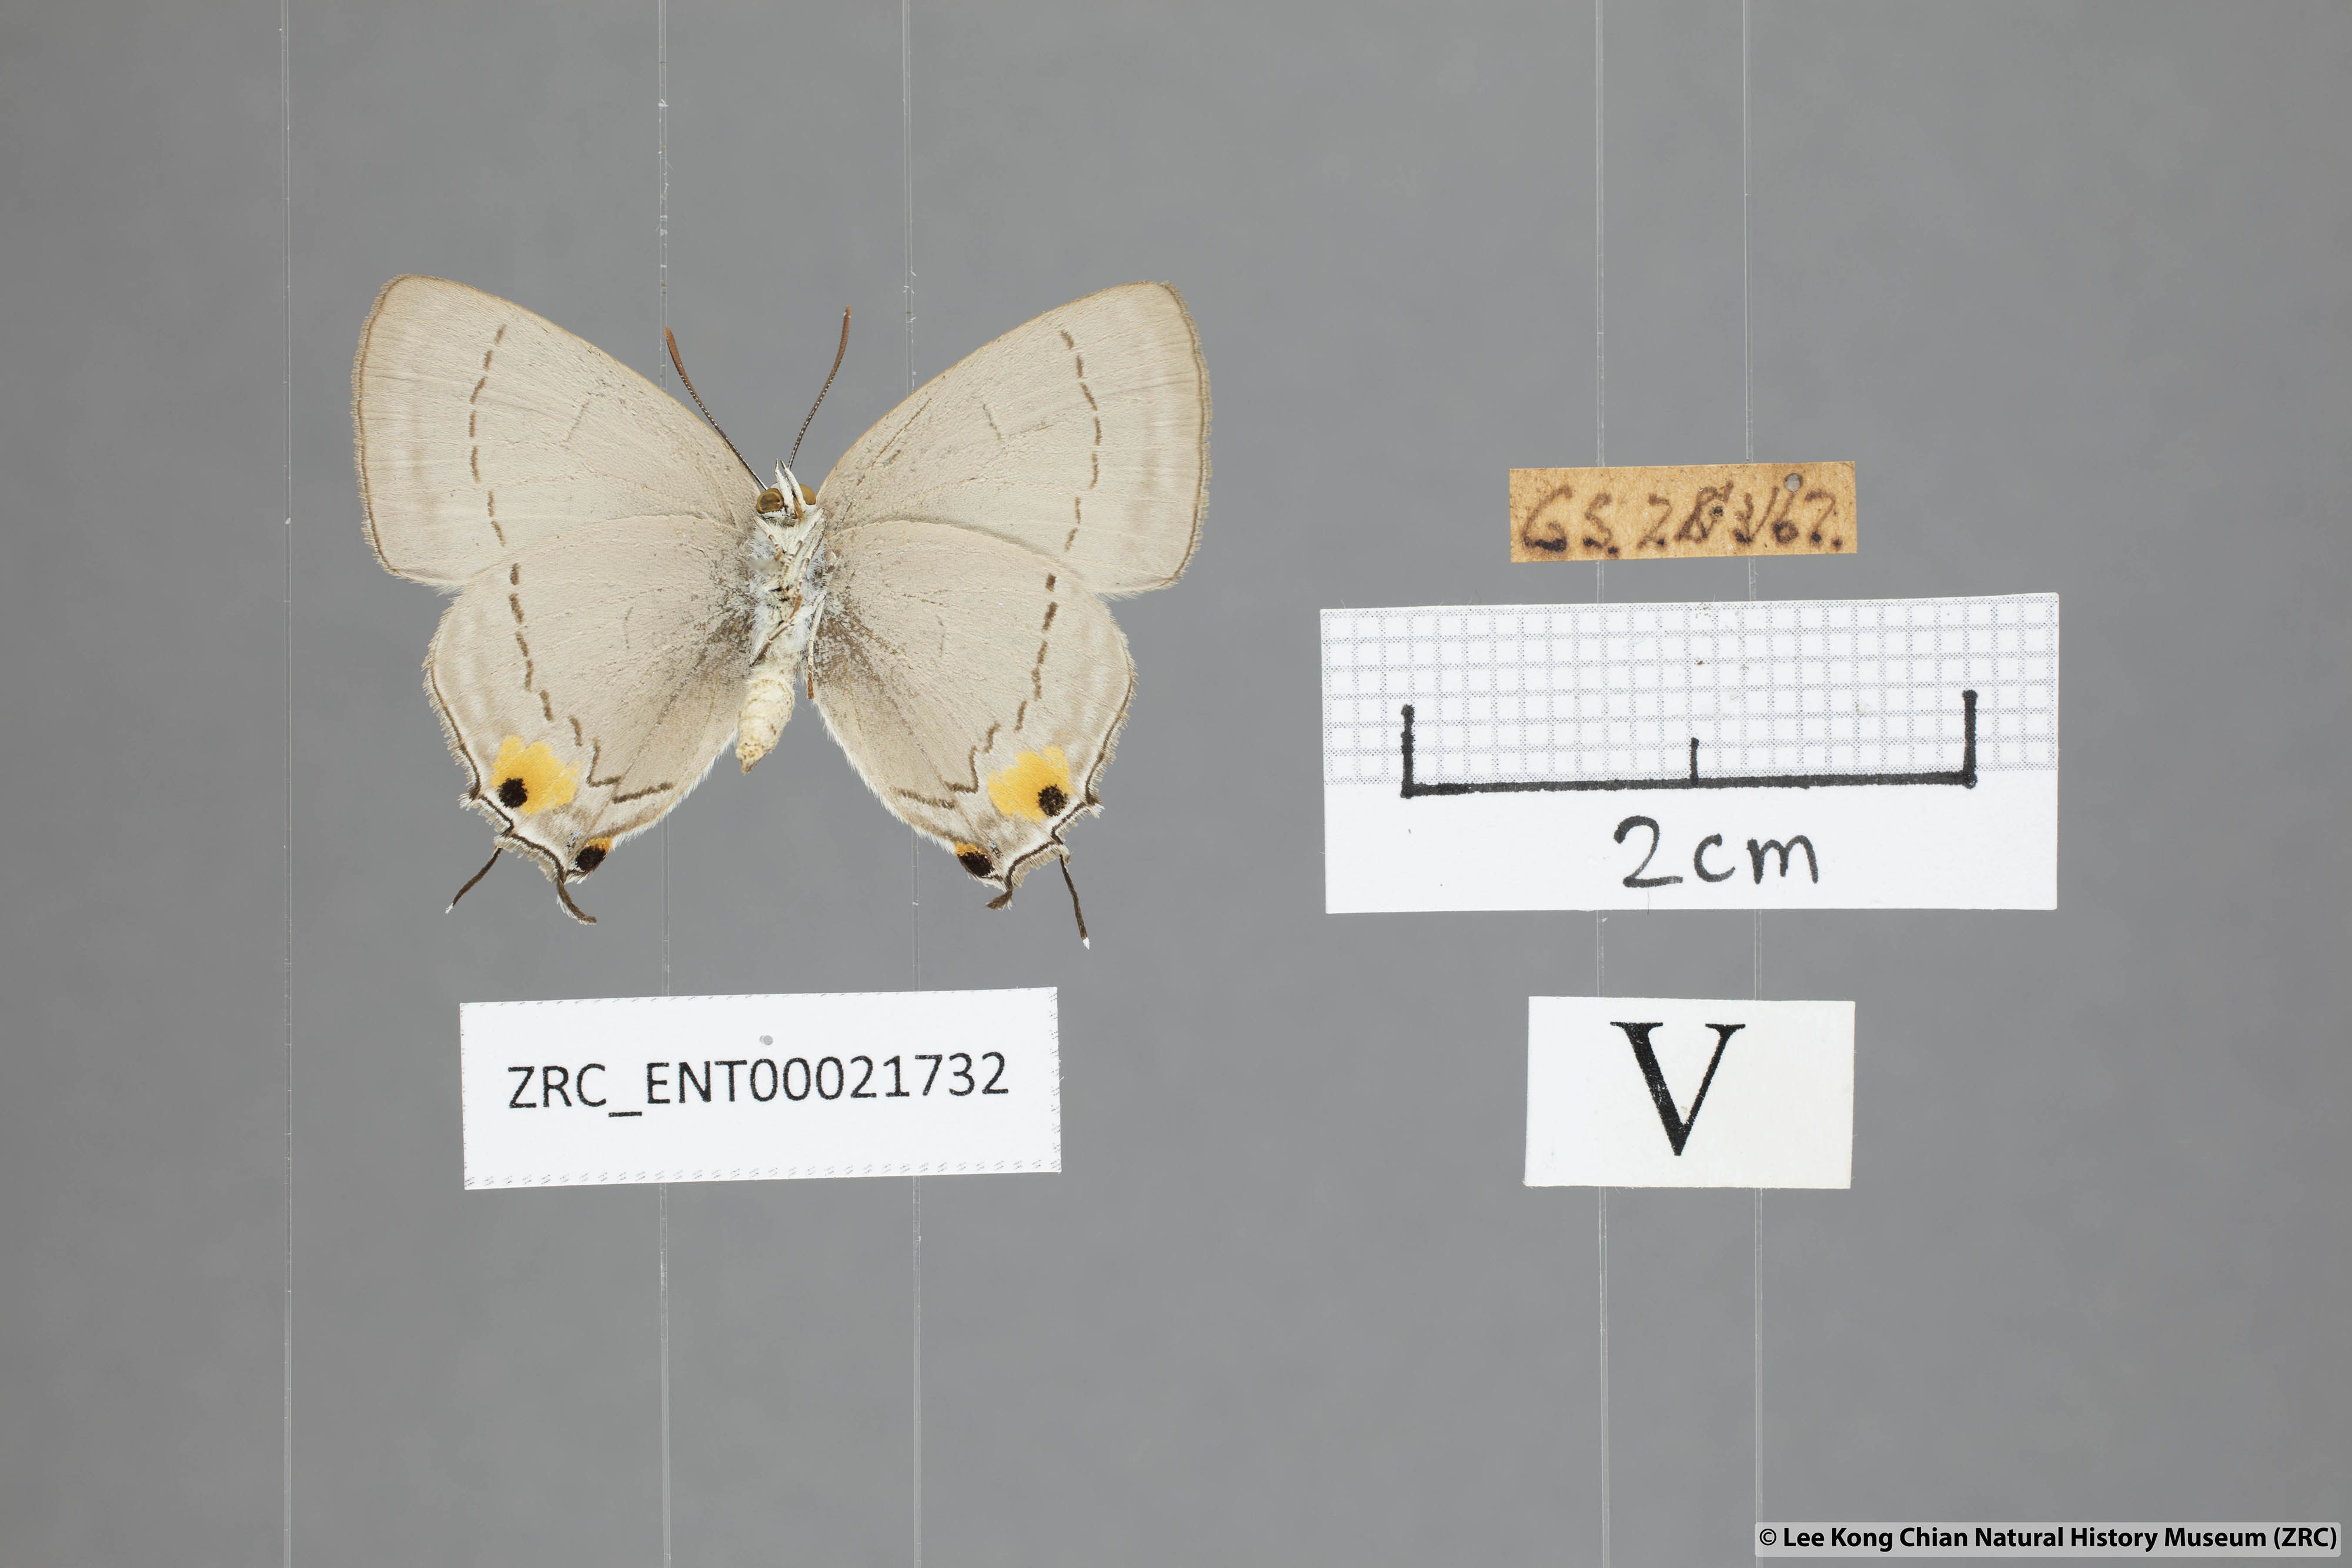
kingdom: Animalia
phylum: Arthropoda
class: Insecta
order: Lepidoptera
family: Lycaenidae
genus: Pratapa
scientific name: Pratapa deva
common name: White royal
